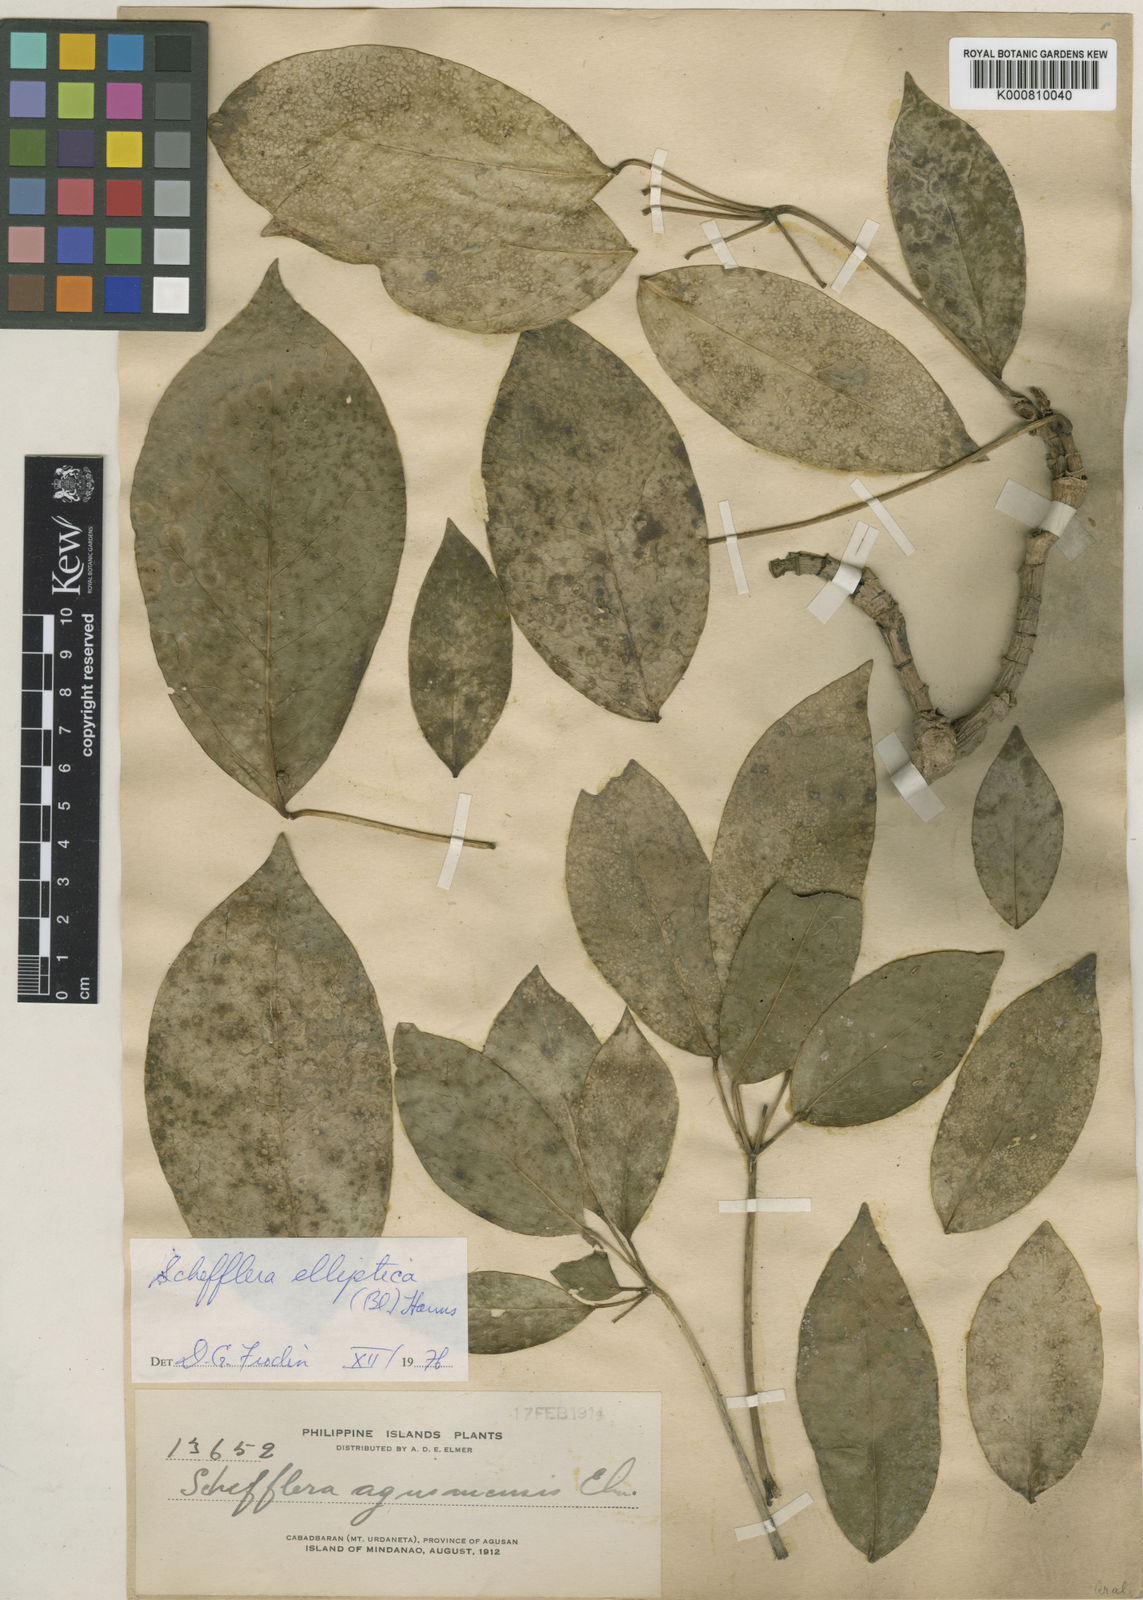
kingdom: Plantae
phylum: Tracheophyta
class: Magnoliopsida
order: Apiales
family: Araliaceae
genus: Heptapleurum
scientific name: Heptapleurum ellipticum
